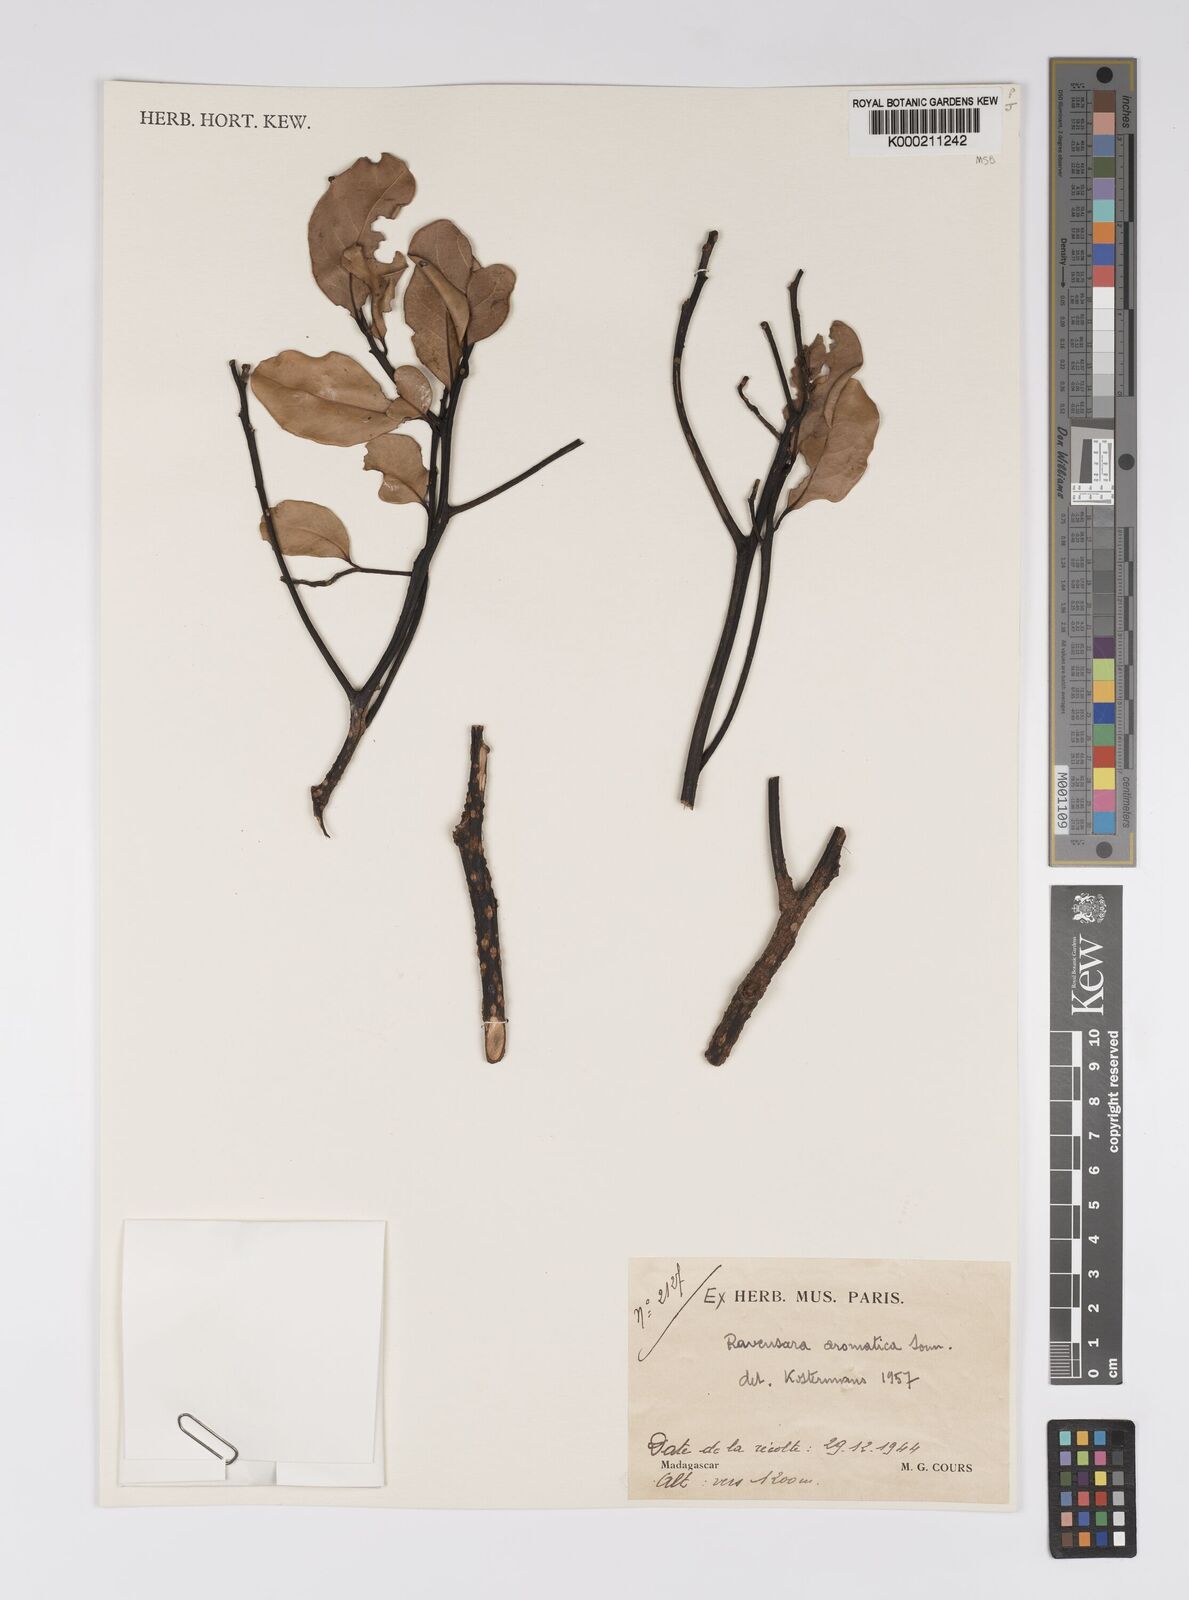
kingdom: Plantae
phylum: Tracheophyta
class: Magnoliopsida
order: Laurales
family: Lauraceae
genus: Cryptocarya
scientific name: Cryptocarya agathophylla
